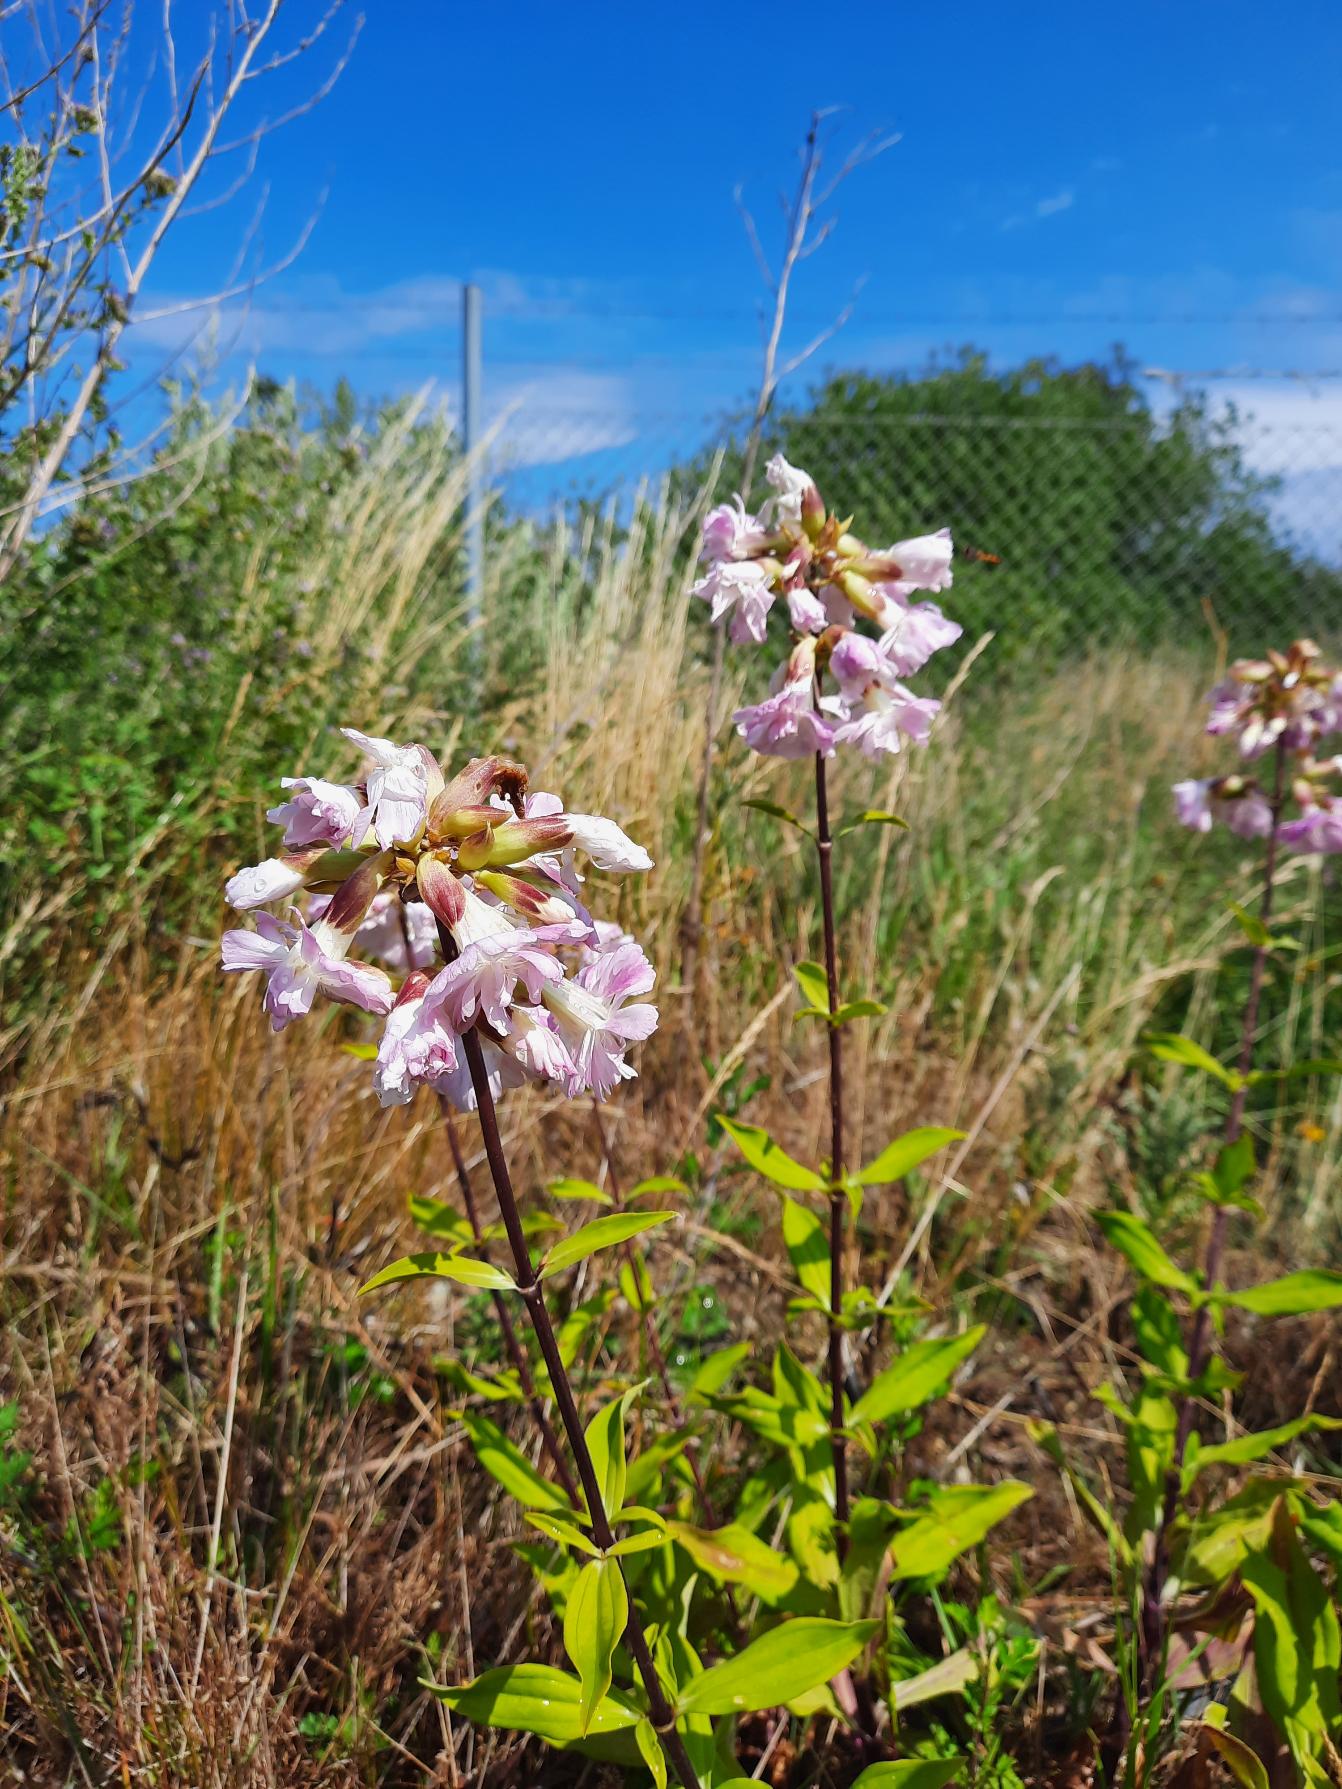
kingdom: Plantae
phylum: Tracheophyta
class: Magnoliopsida
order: Caryophyllales
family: Caryophyllaceae
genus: Saponaria
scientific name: Saponaria officinalis
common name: Sæbeurt
